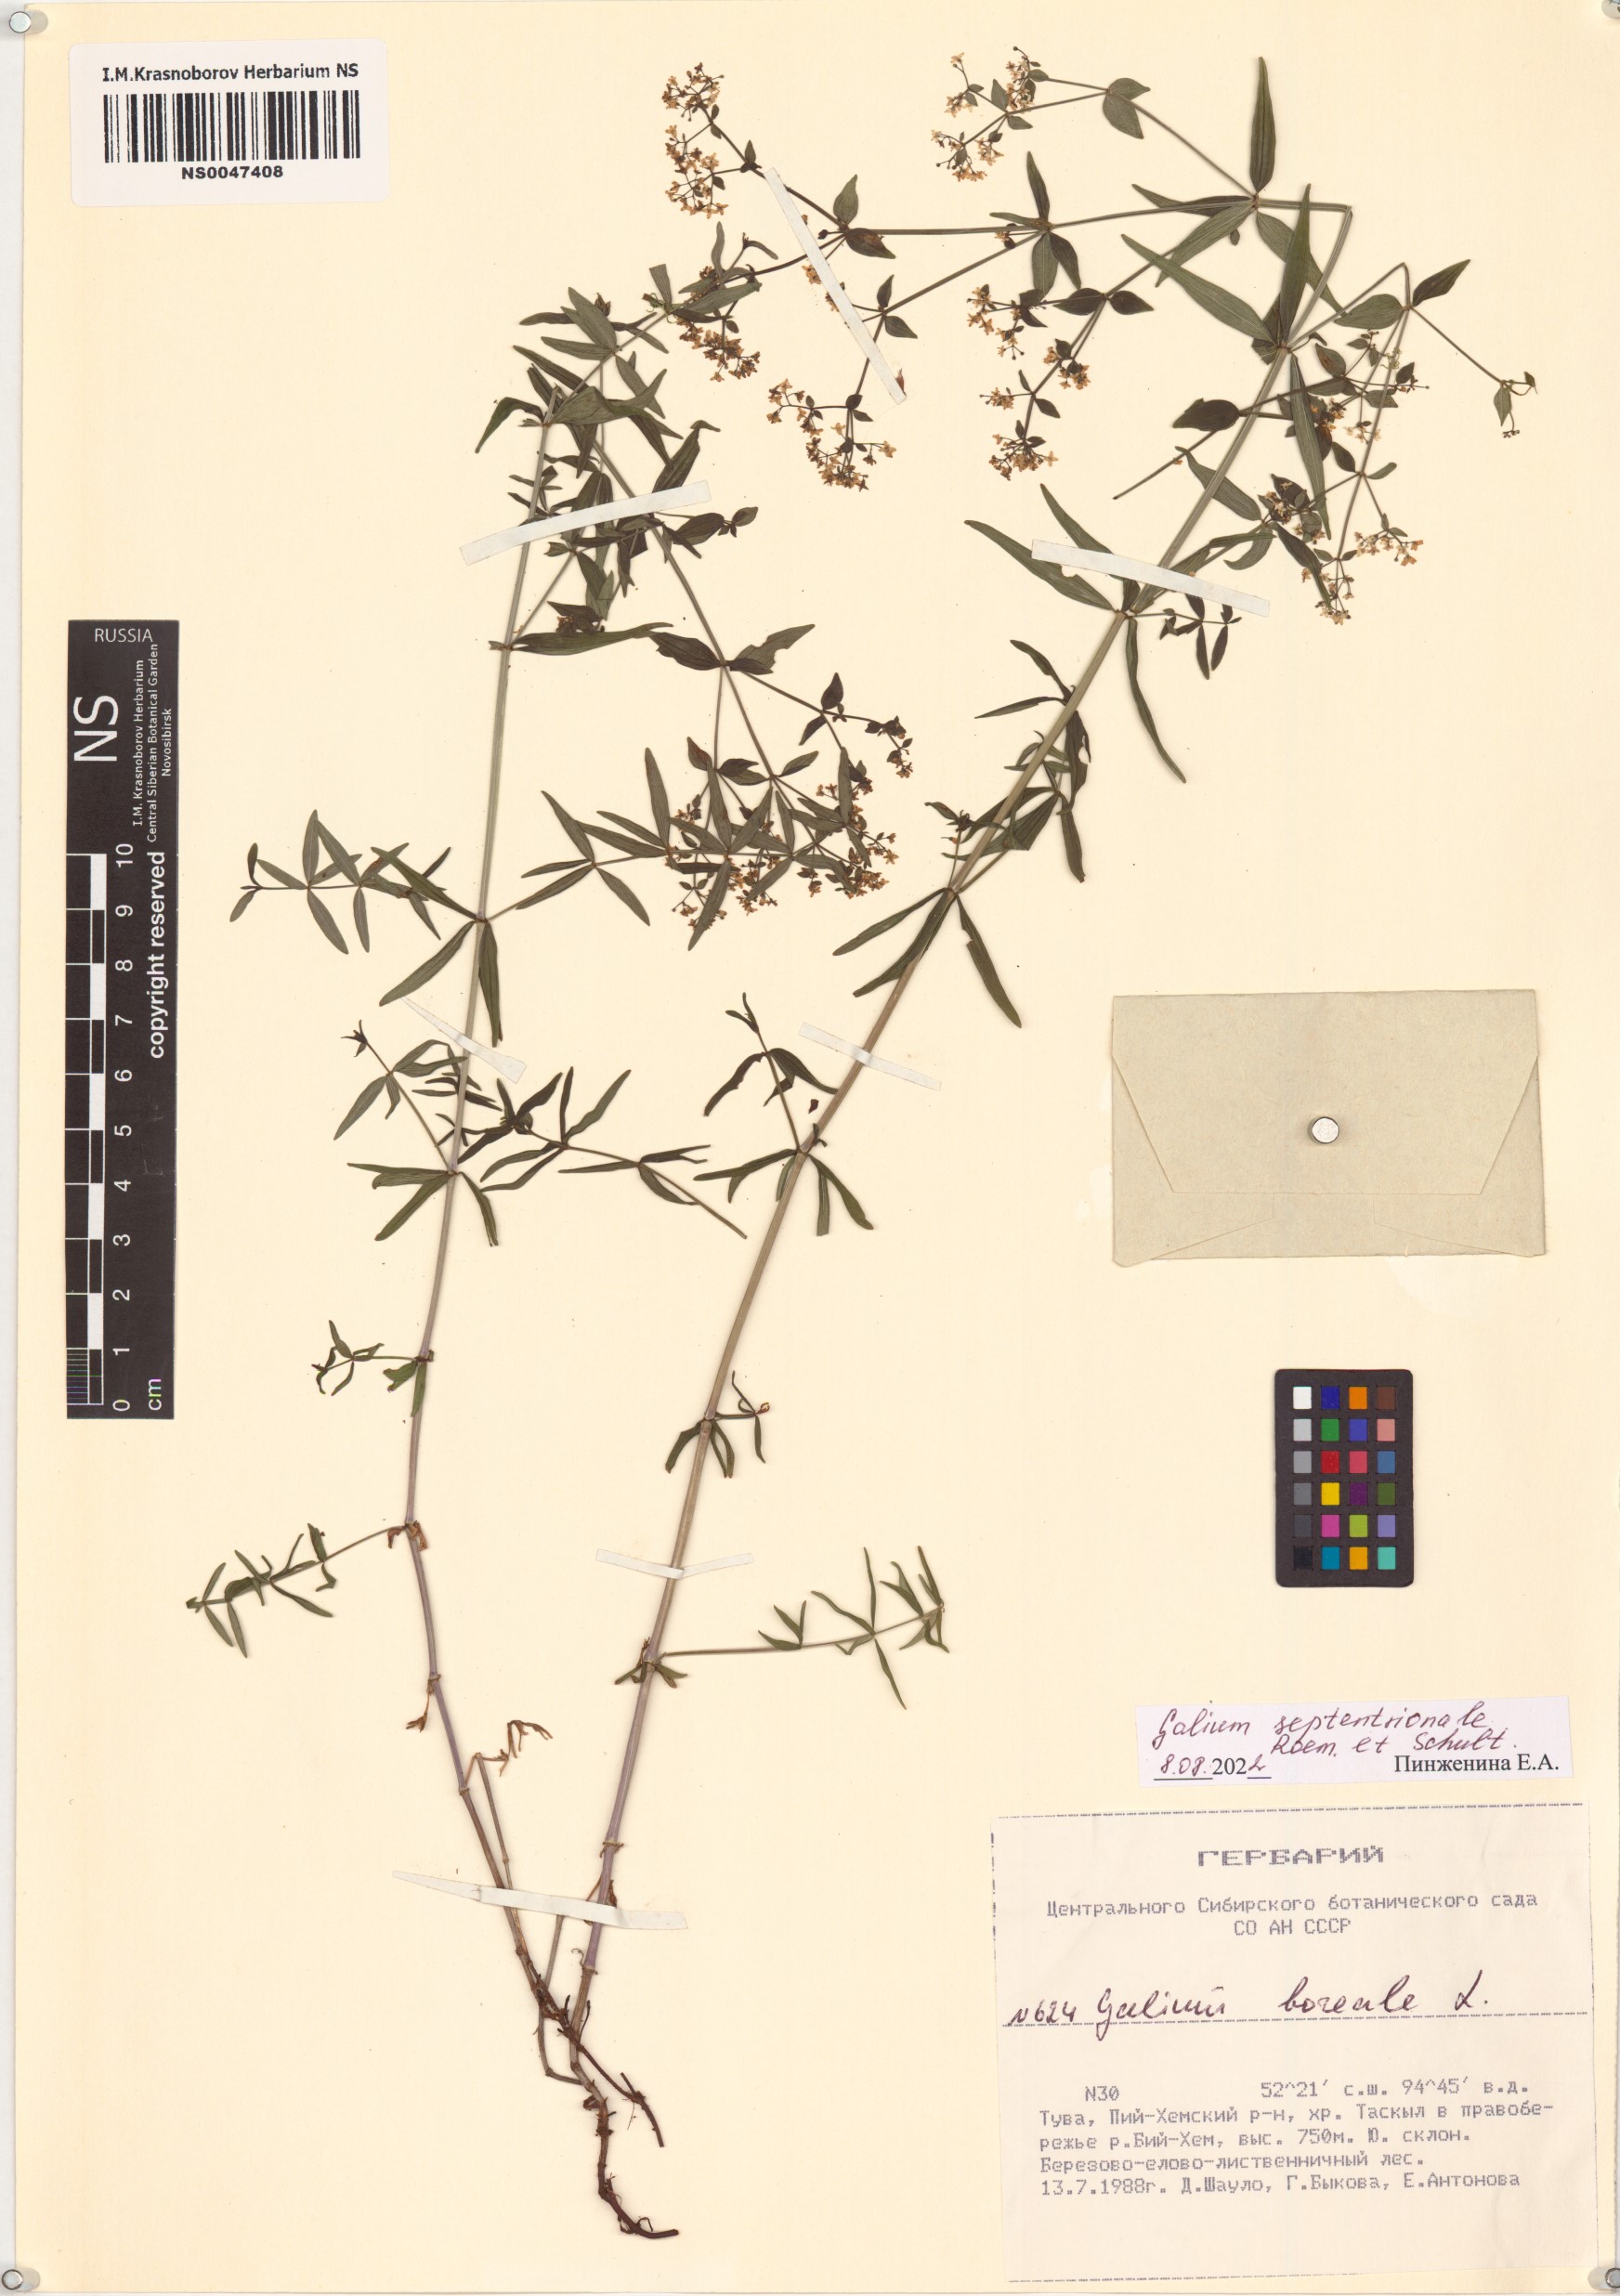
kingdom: Plantae
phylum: Tracheophyta
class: Magnoliopsida
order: Gentianales
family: Rubiaceae
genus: Galium
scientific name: Galium boreale
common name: Northern bedstraw
